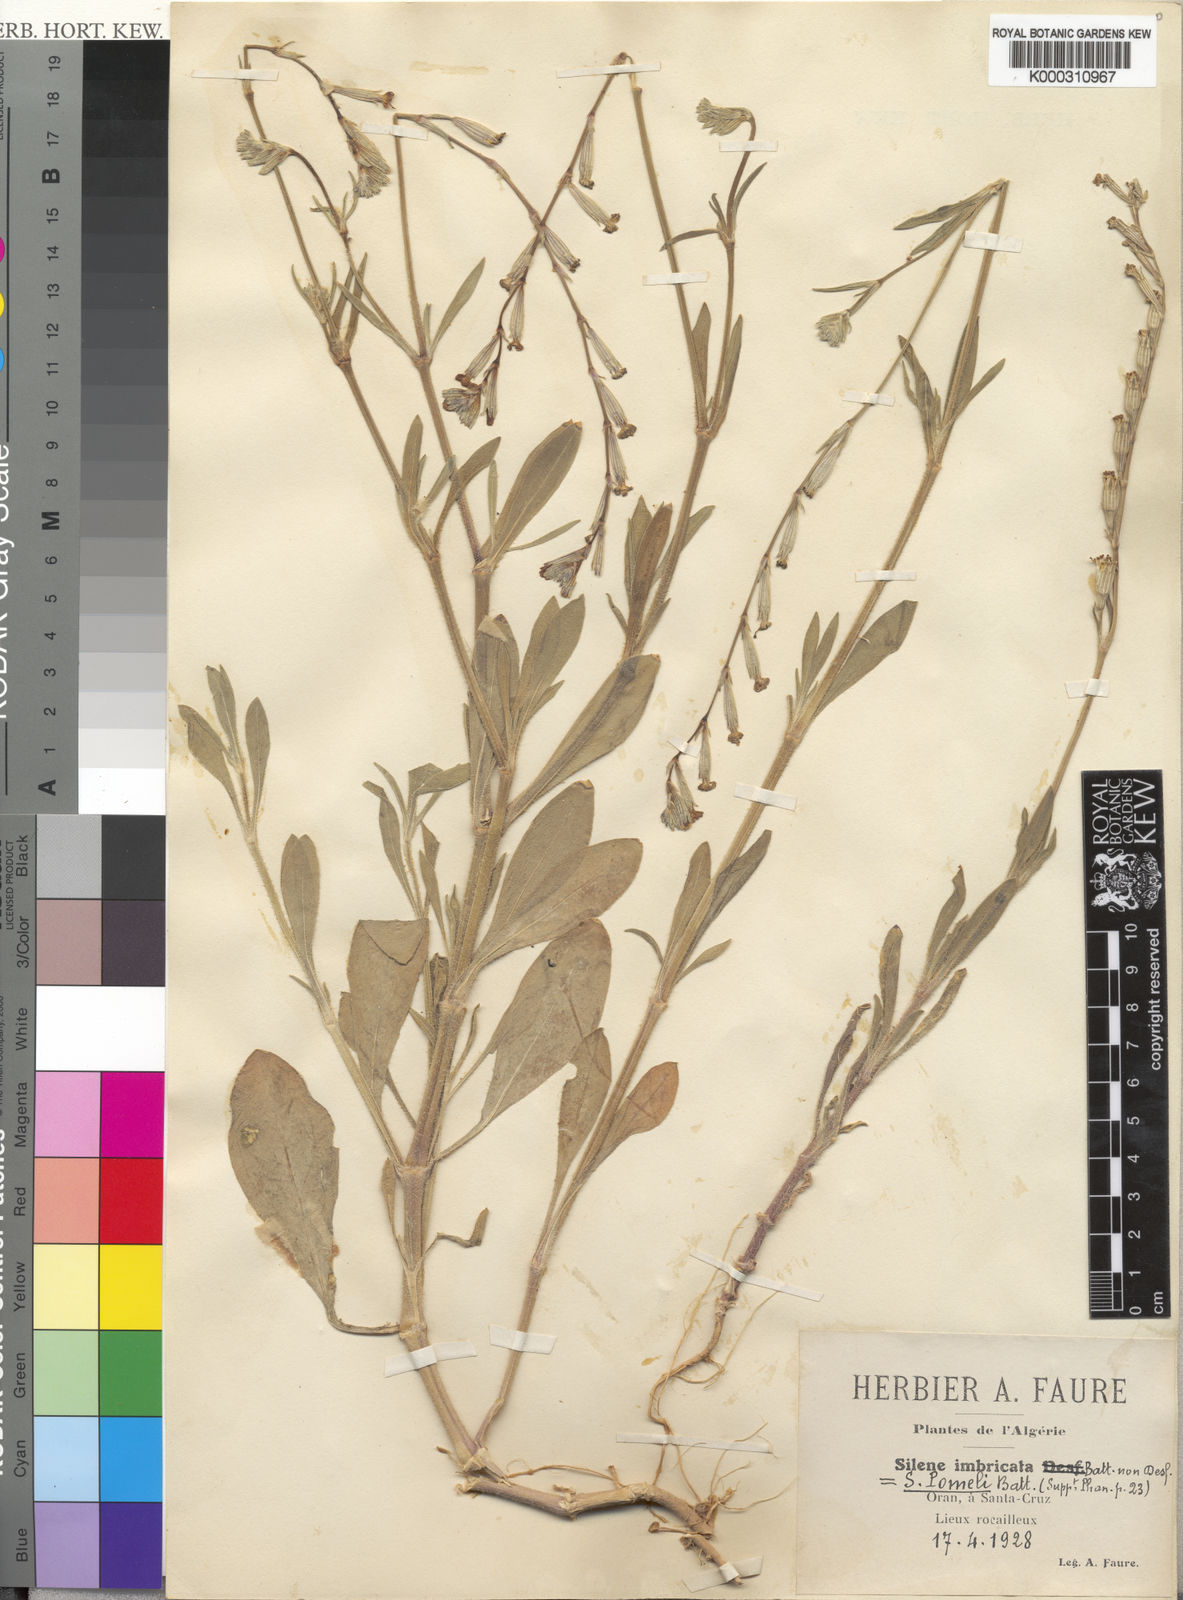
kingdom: Plantae
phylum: Tracheophyta
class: Magnoliopsida
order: Caryophyllales
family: Caryophyllaceae
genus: Silene
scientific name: Silene imbricata
